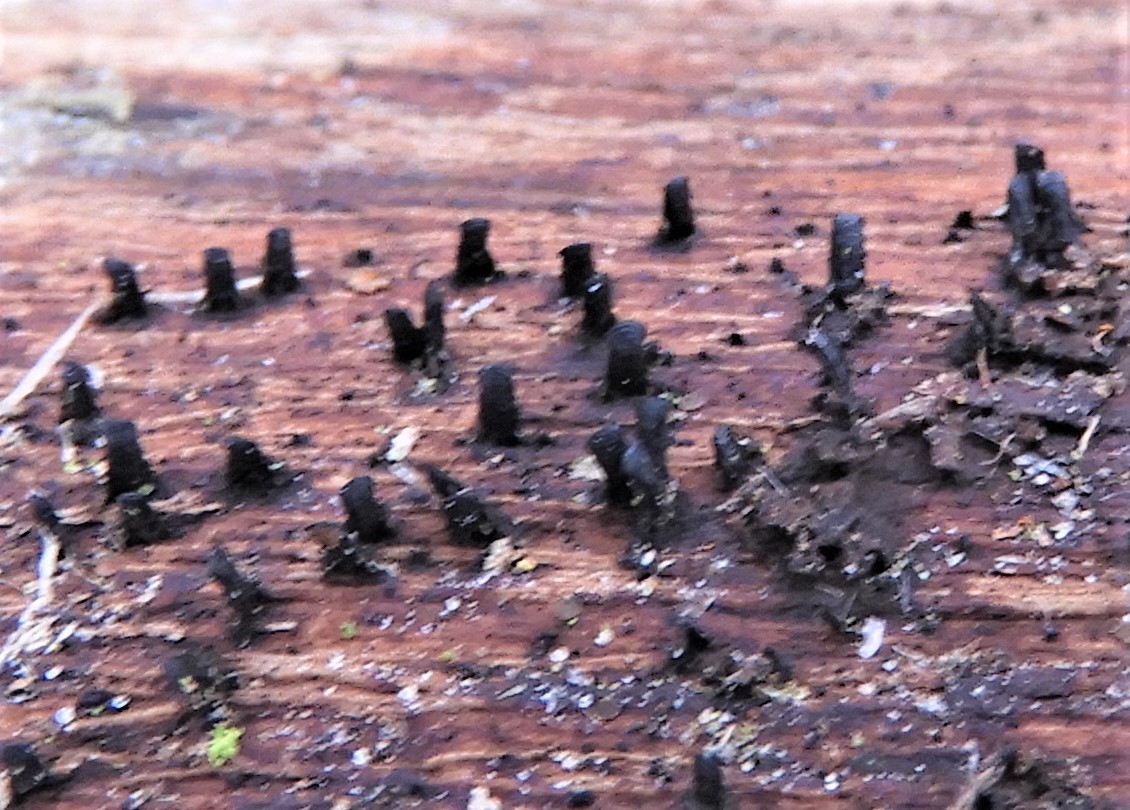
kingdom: Fungi
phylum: Ascomycota
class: Eurotiomycetes
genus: Glyphium
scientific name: Glyphium elatum
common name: kuløkse
